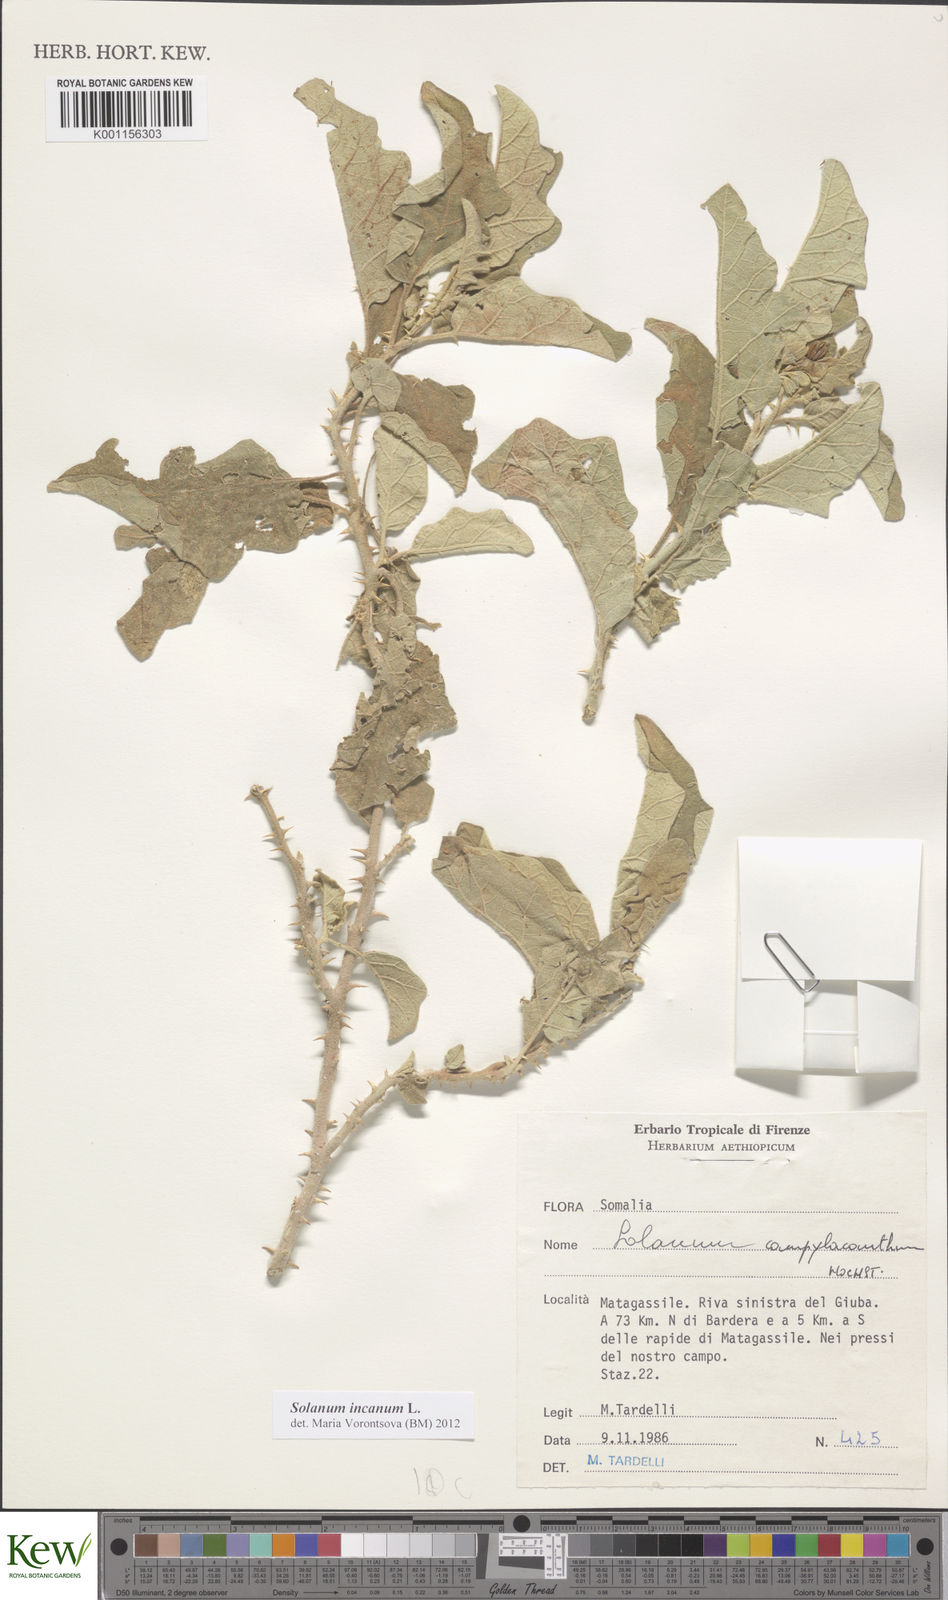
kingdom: Plantae
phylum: Tracheophyta
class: Magnoliopsida
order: Solanales
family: Solanaceae
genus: Solanum
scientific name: Solanum incanum
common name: Bitter apple
